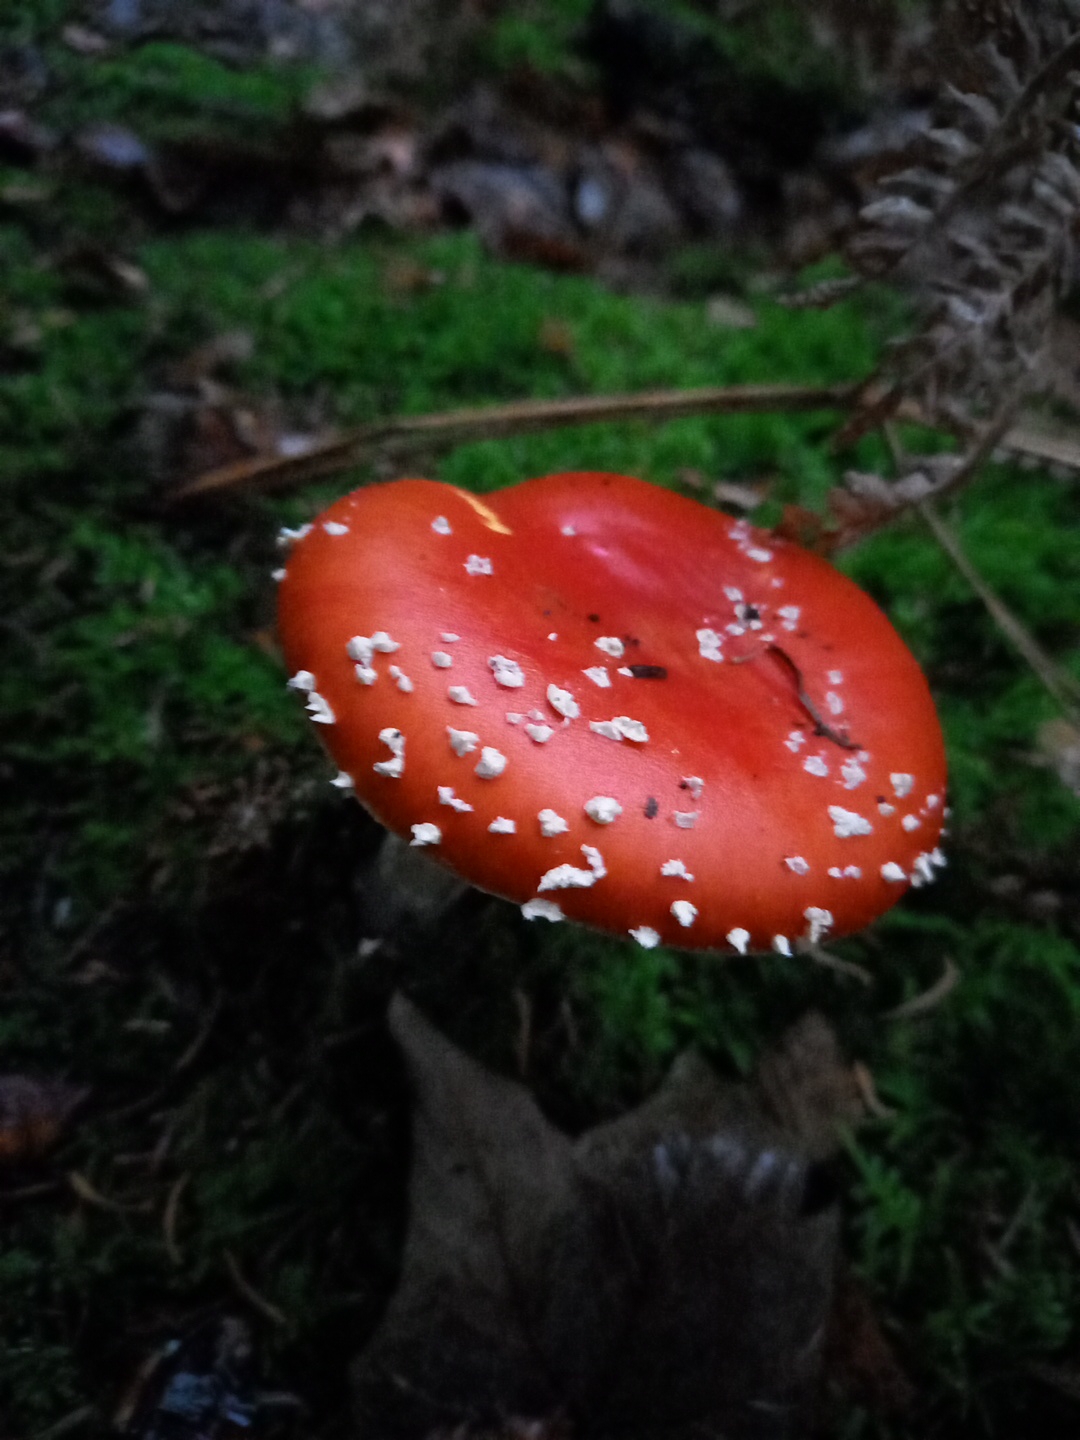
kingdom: Fungi
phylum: Basidiomycota
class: Agaricomycetes
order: Agaricales
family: Amanitaceae
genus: Amanita
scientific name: Amanita muscaria
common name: rød fluesvamp
